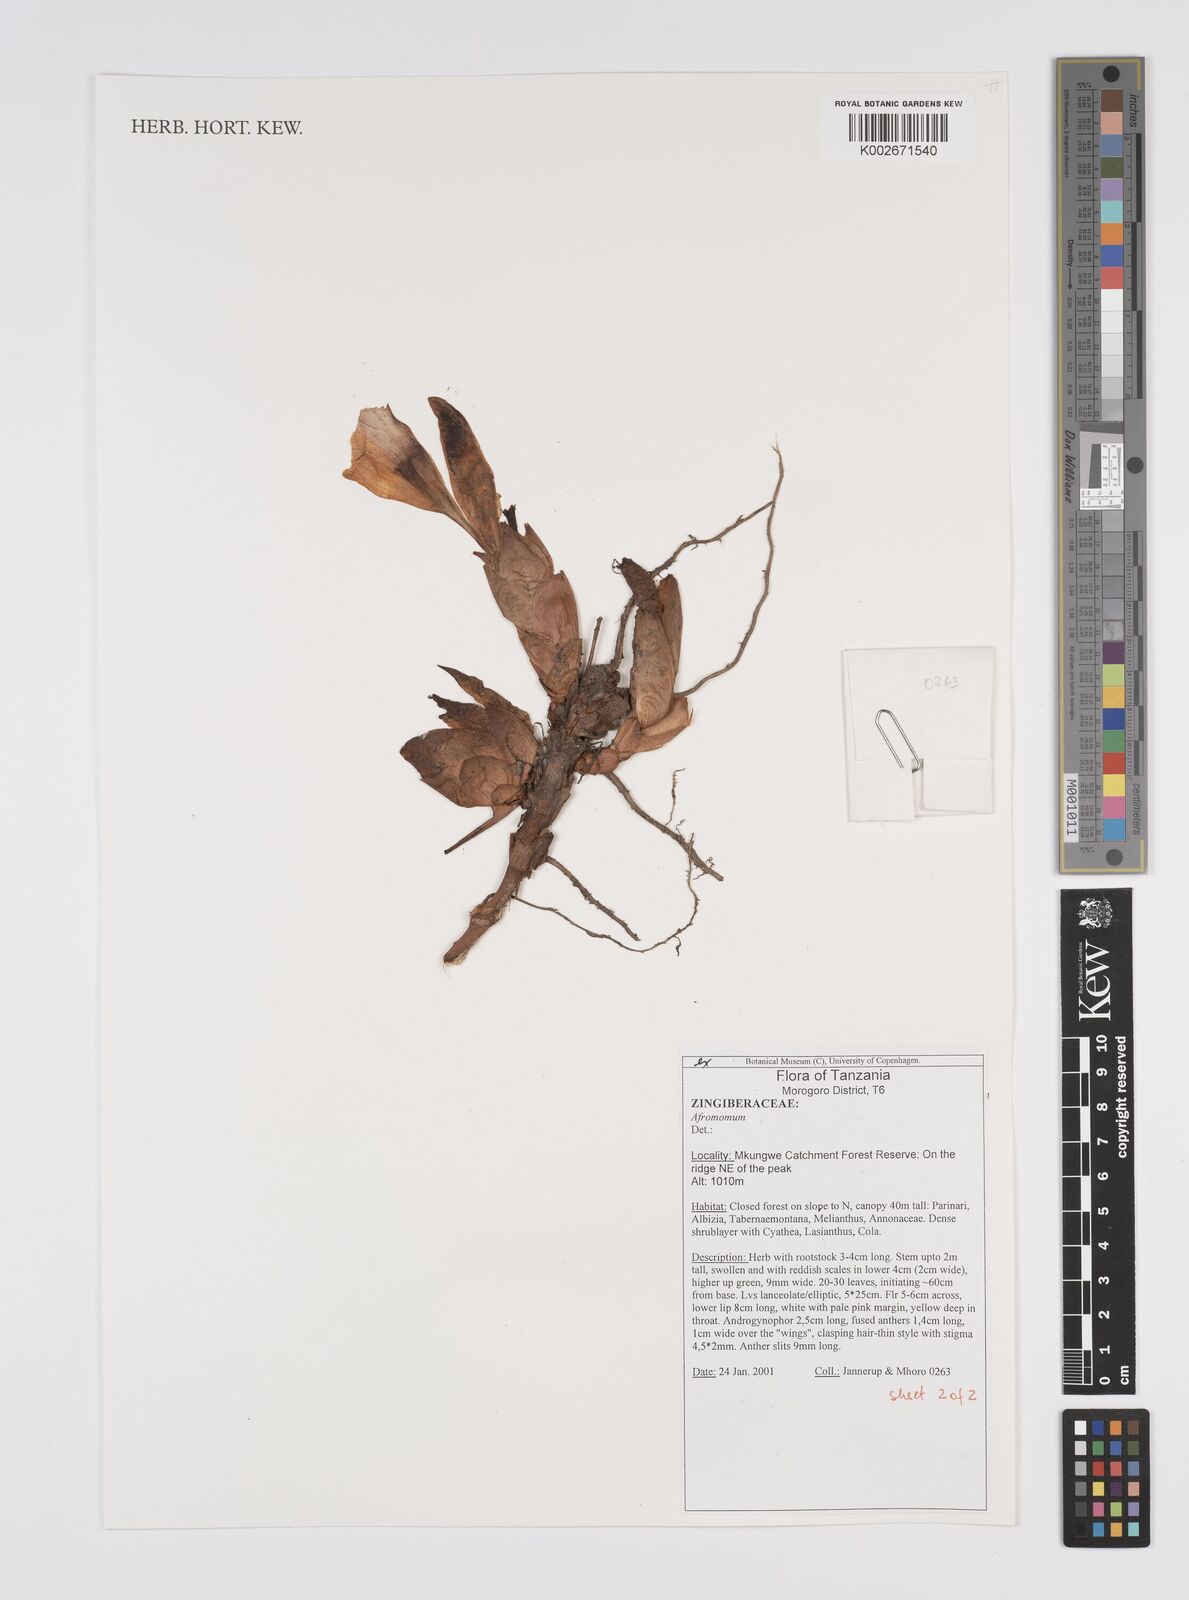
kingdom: Plantae
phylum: Tracheophyta
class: Liliopsida
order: Zingiberales
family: Zingiberaceae
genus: Aframomum
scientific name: Aframomum corrorima
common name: Ethiopian cardamom
